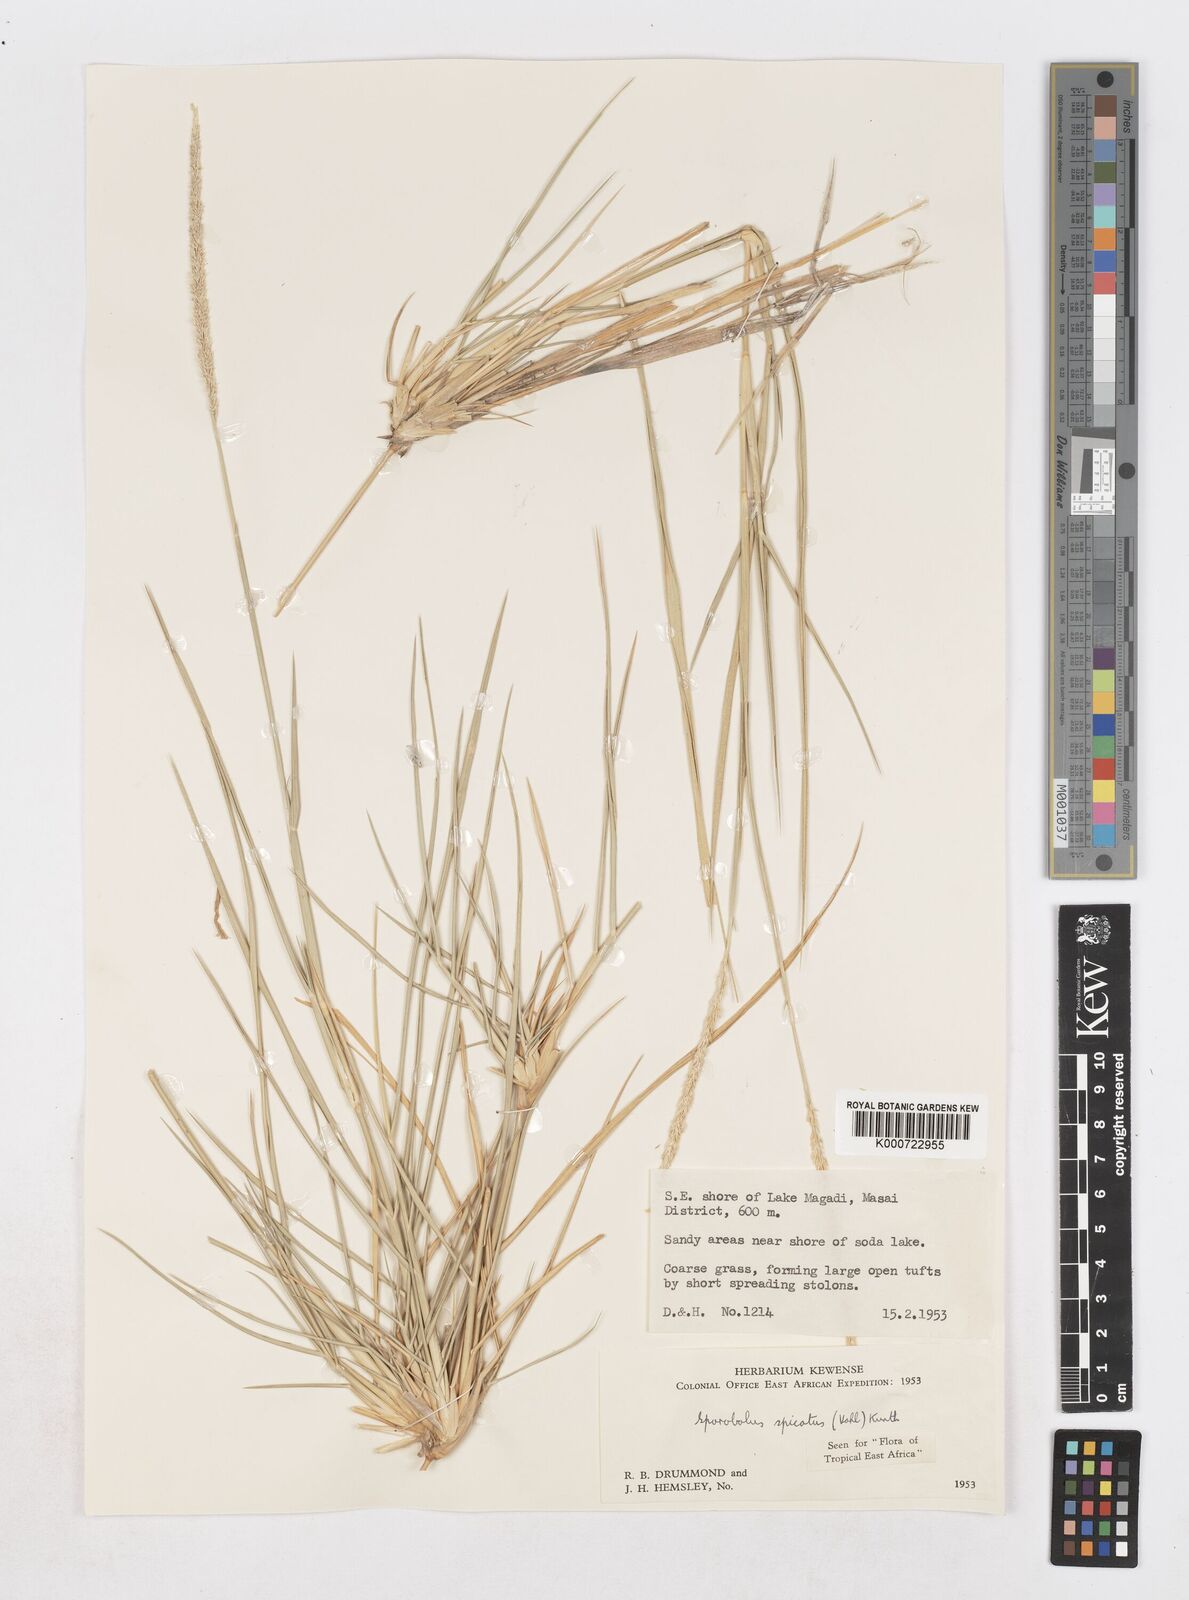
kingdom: Plantae
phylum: Tracheophyta
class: Liliopsida
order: Poales
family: Poaceae
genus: Sporobolus
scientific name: Sporobolus spicatus
